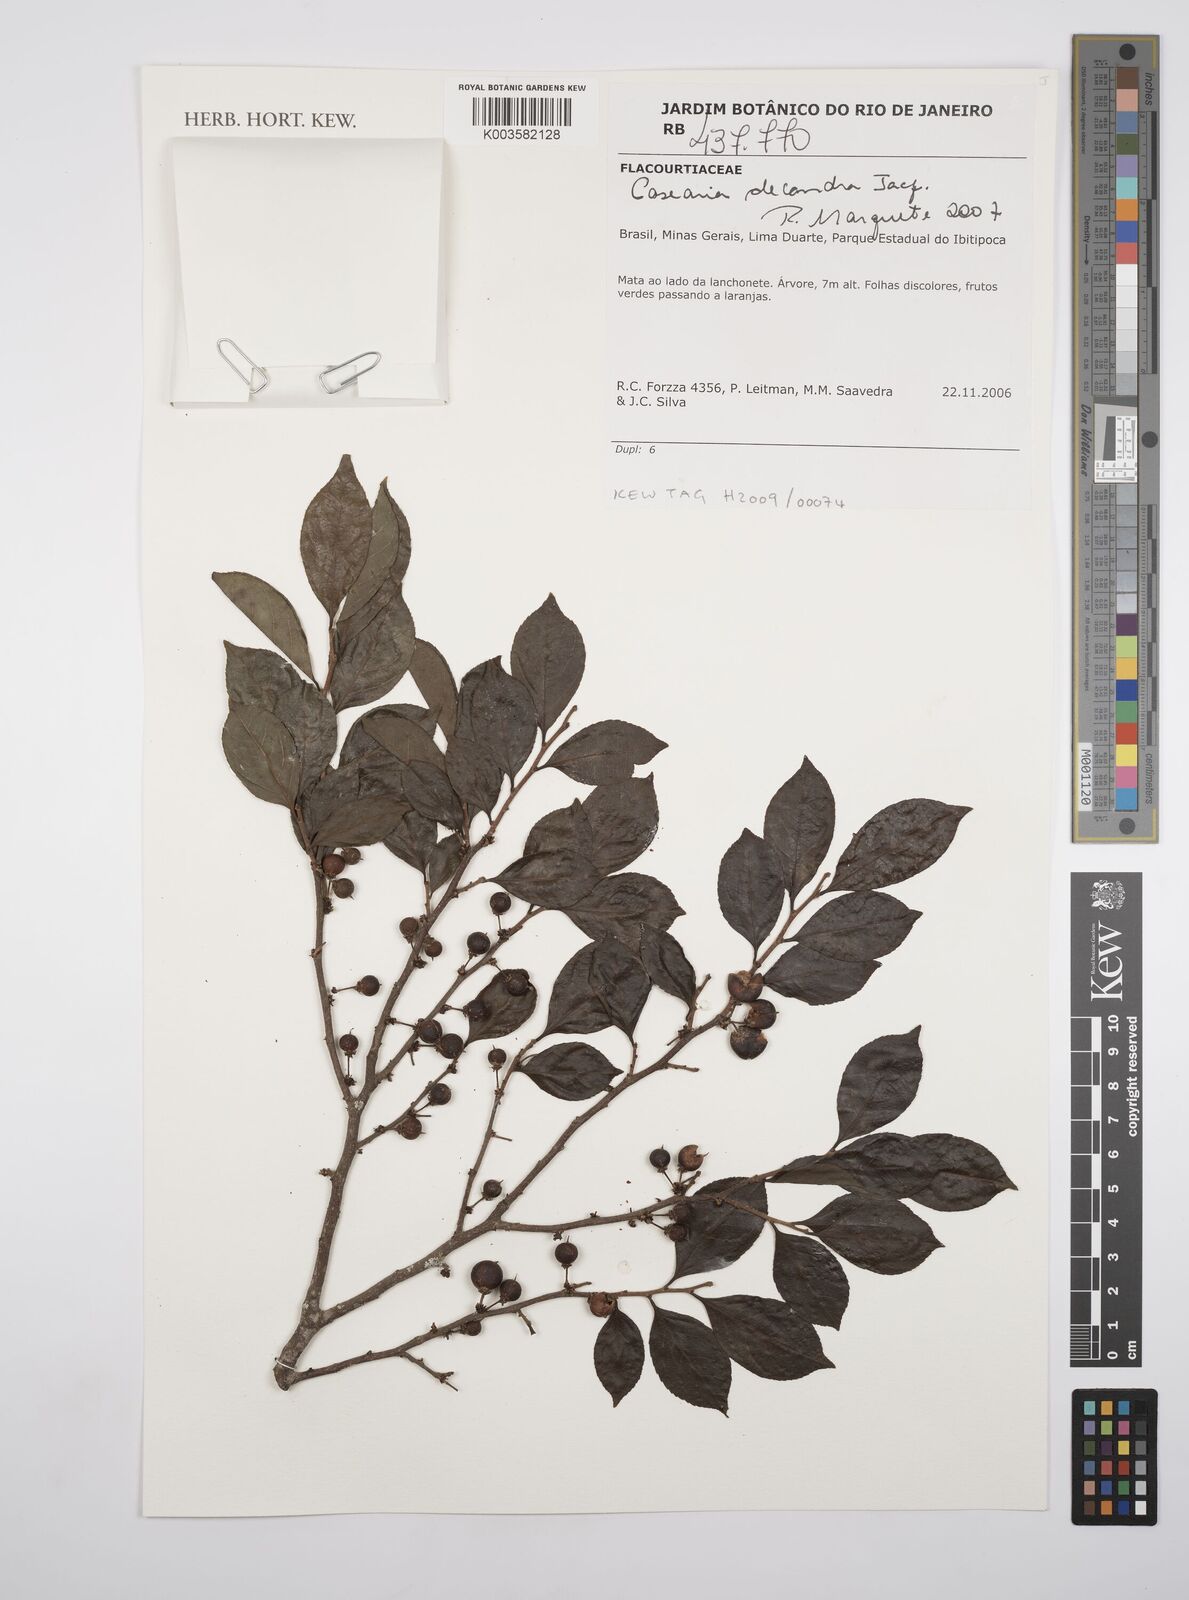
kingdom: Plantae
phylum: Tracheophyta
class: Magnoliopsida
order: Malpighiales
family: Salicaceae
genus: Casearia
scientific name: Casearia
